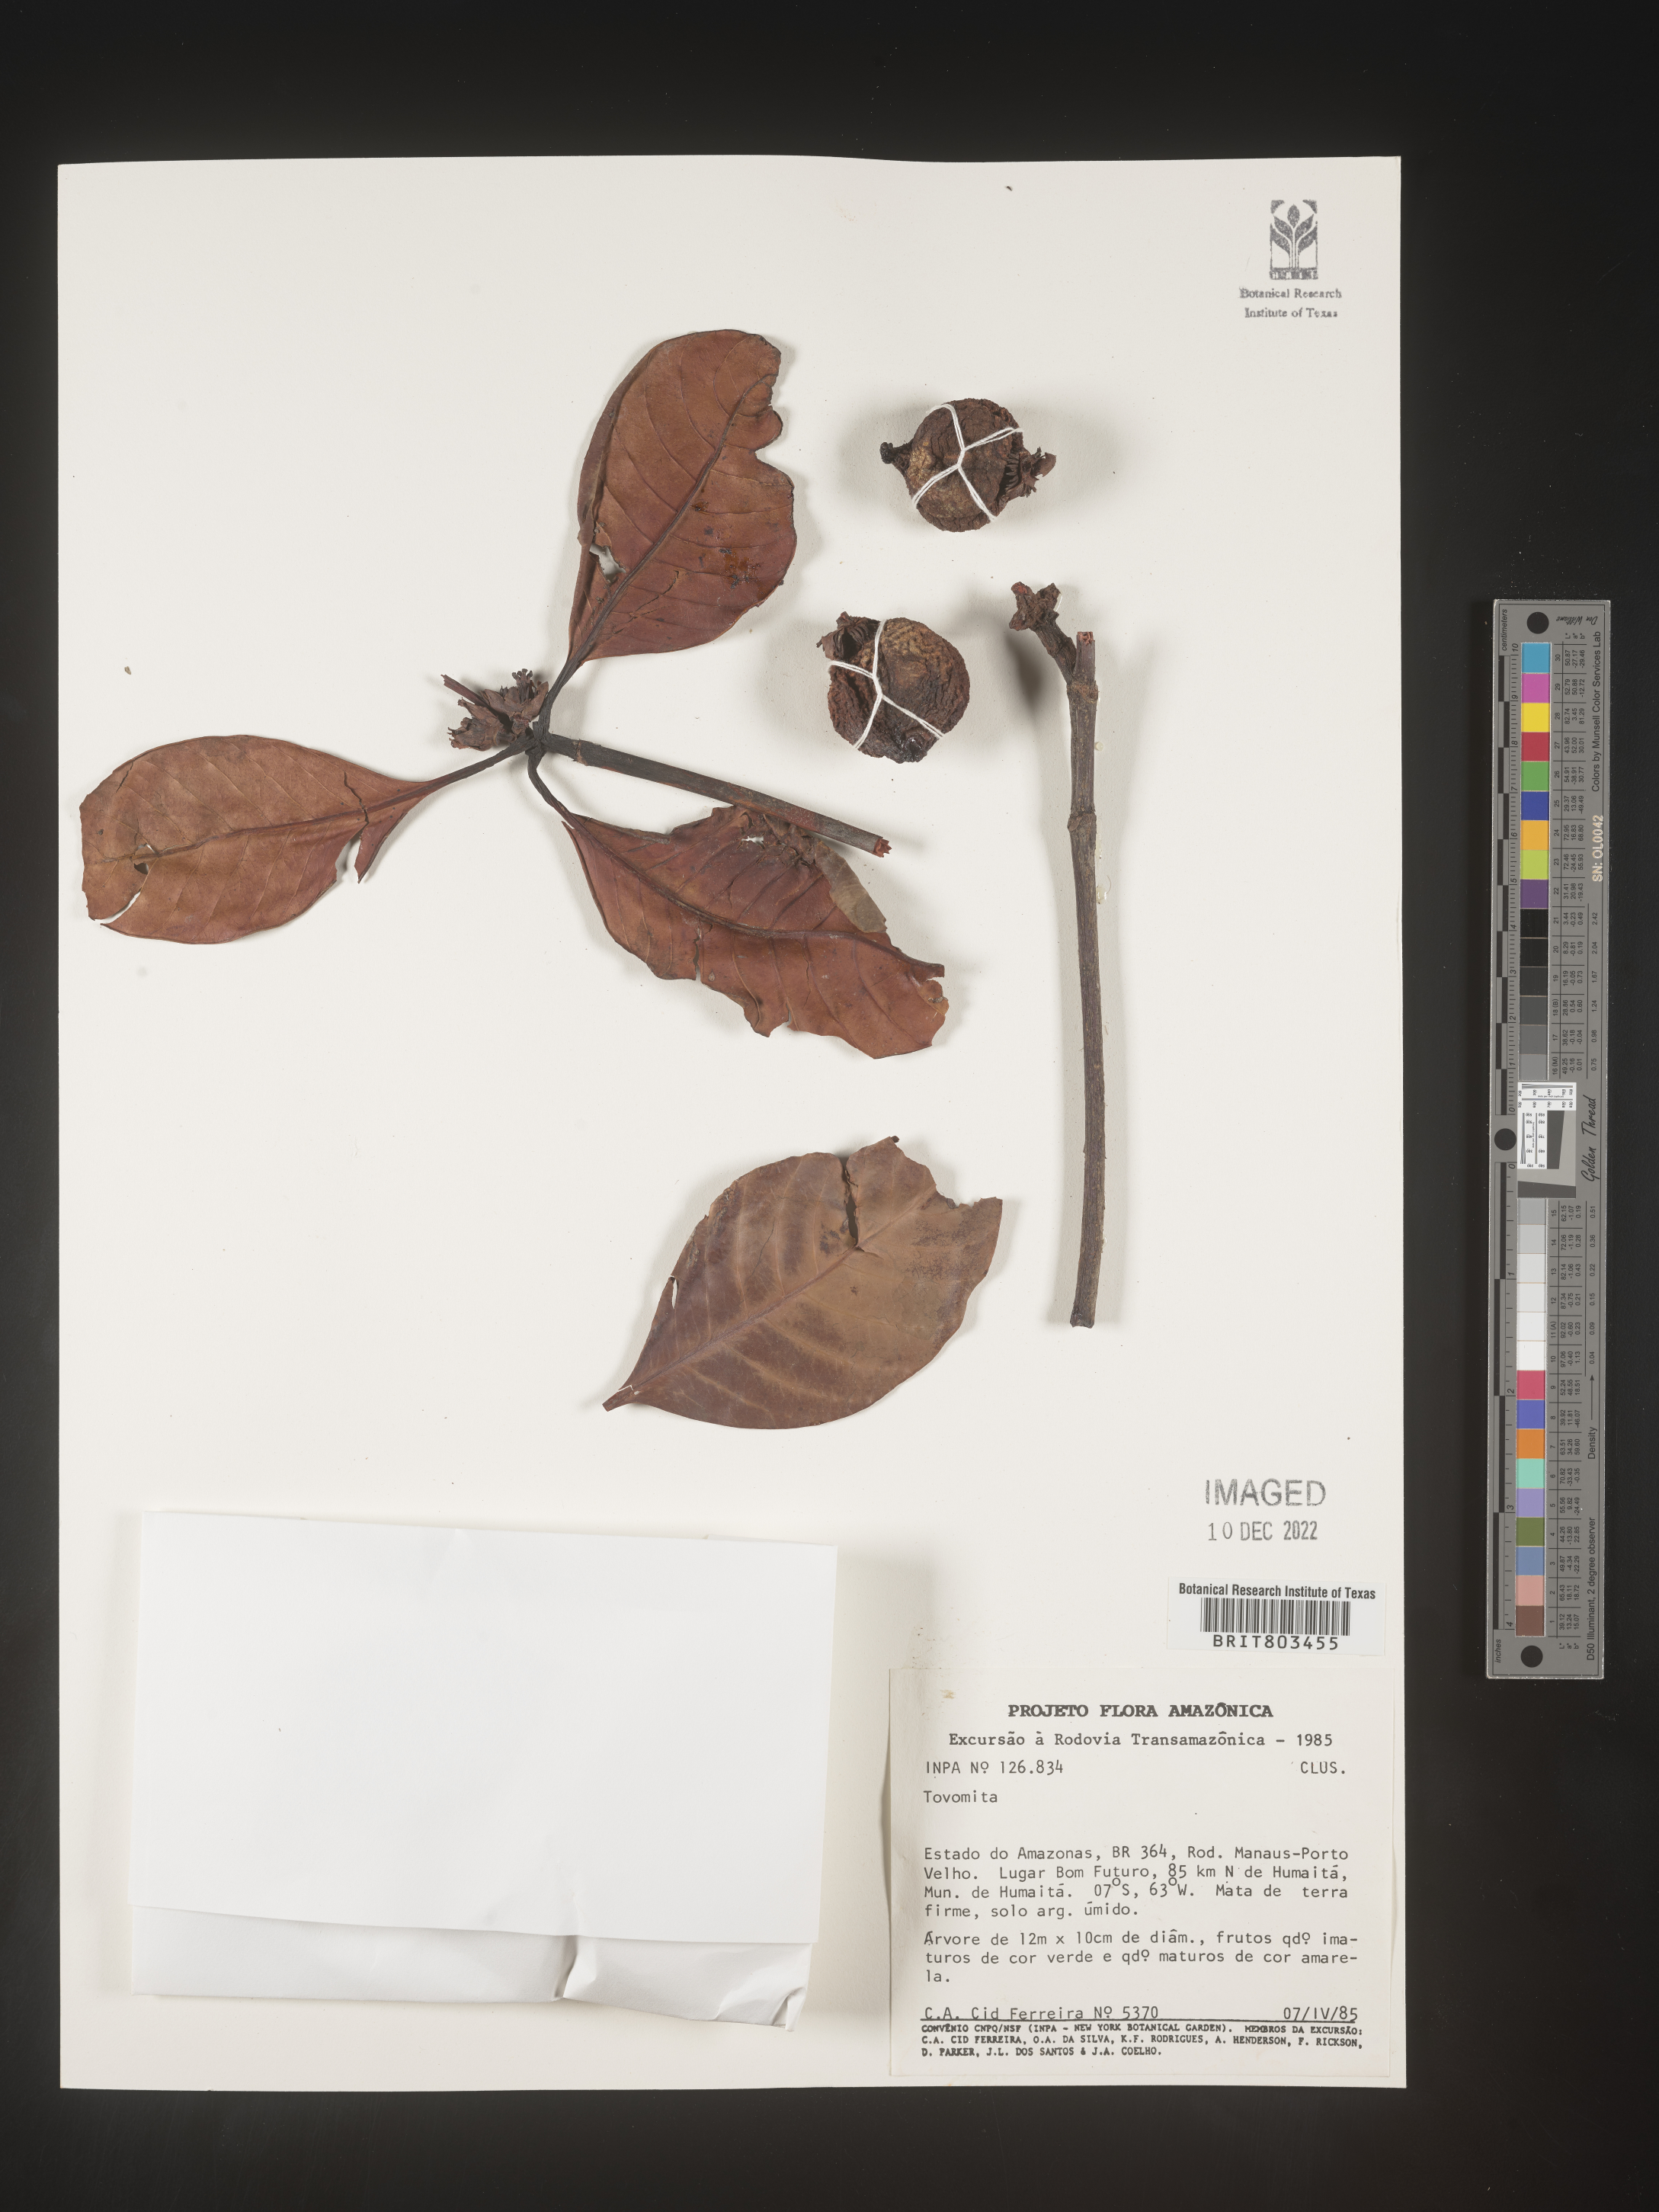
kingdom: Plantae
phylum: Tracheophyta
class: Magnoliopsida
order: Malpighiales
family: Clusiaceae
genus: Tovomita
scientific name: Tovomita
